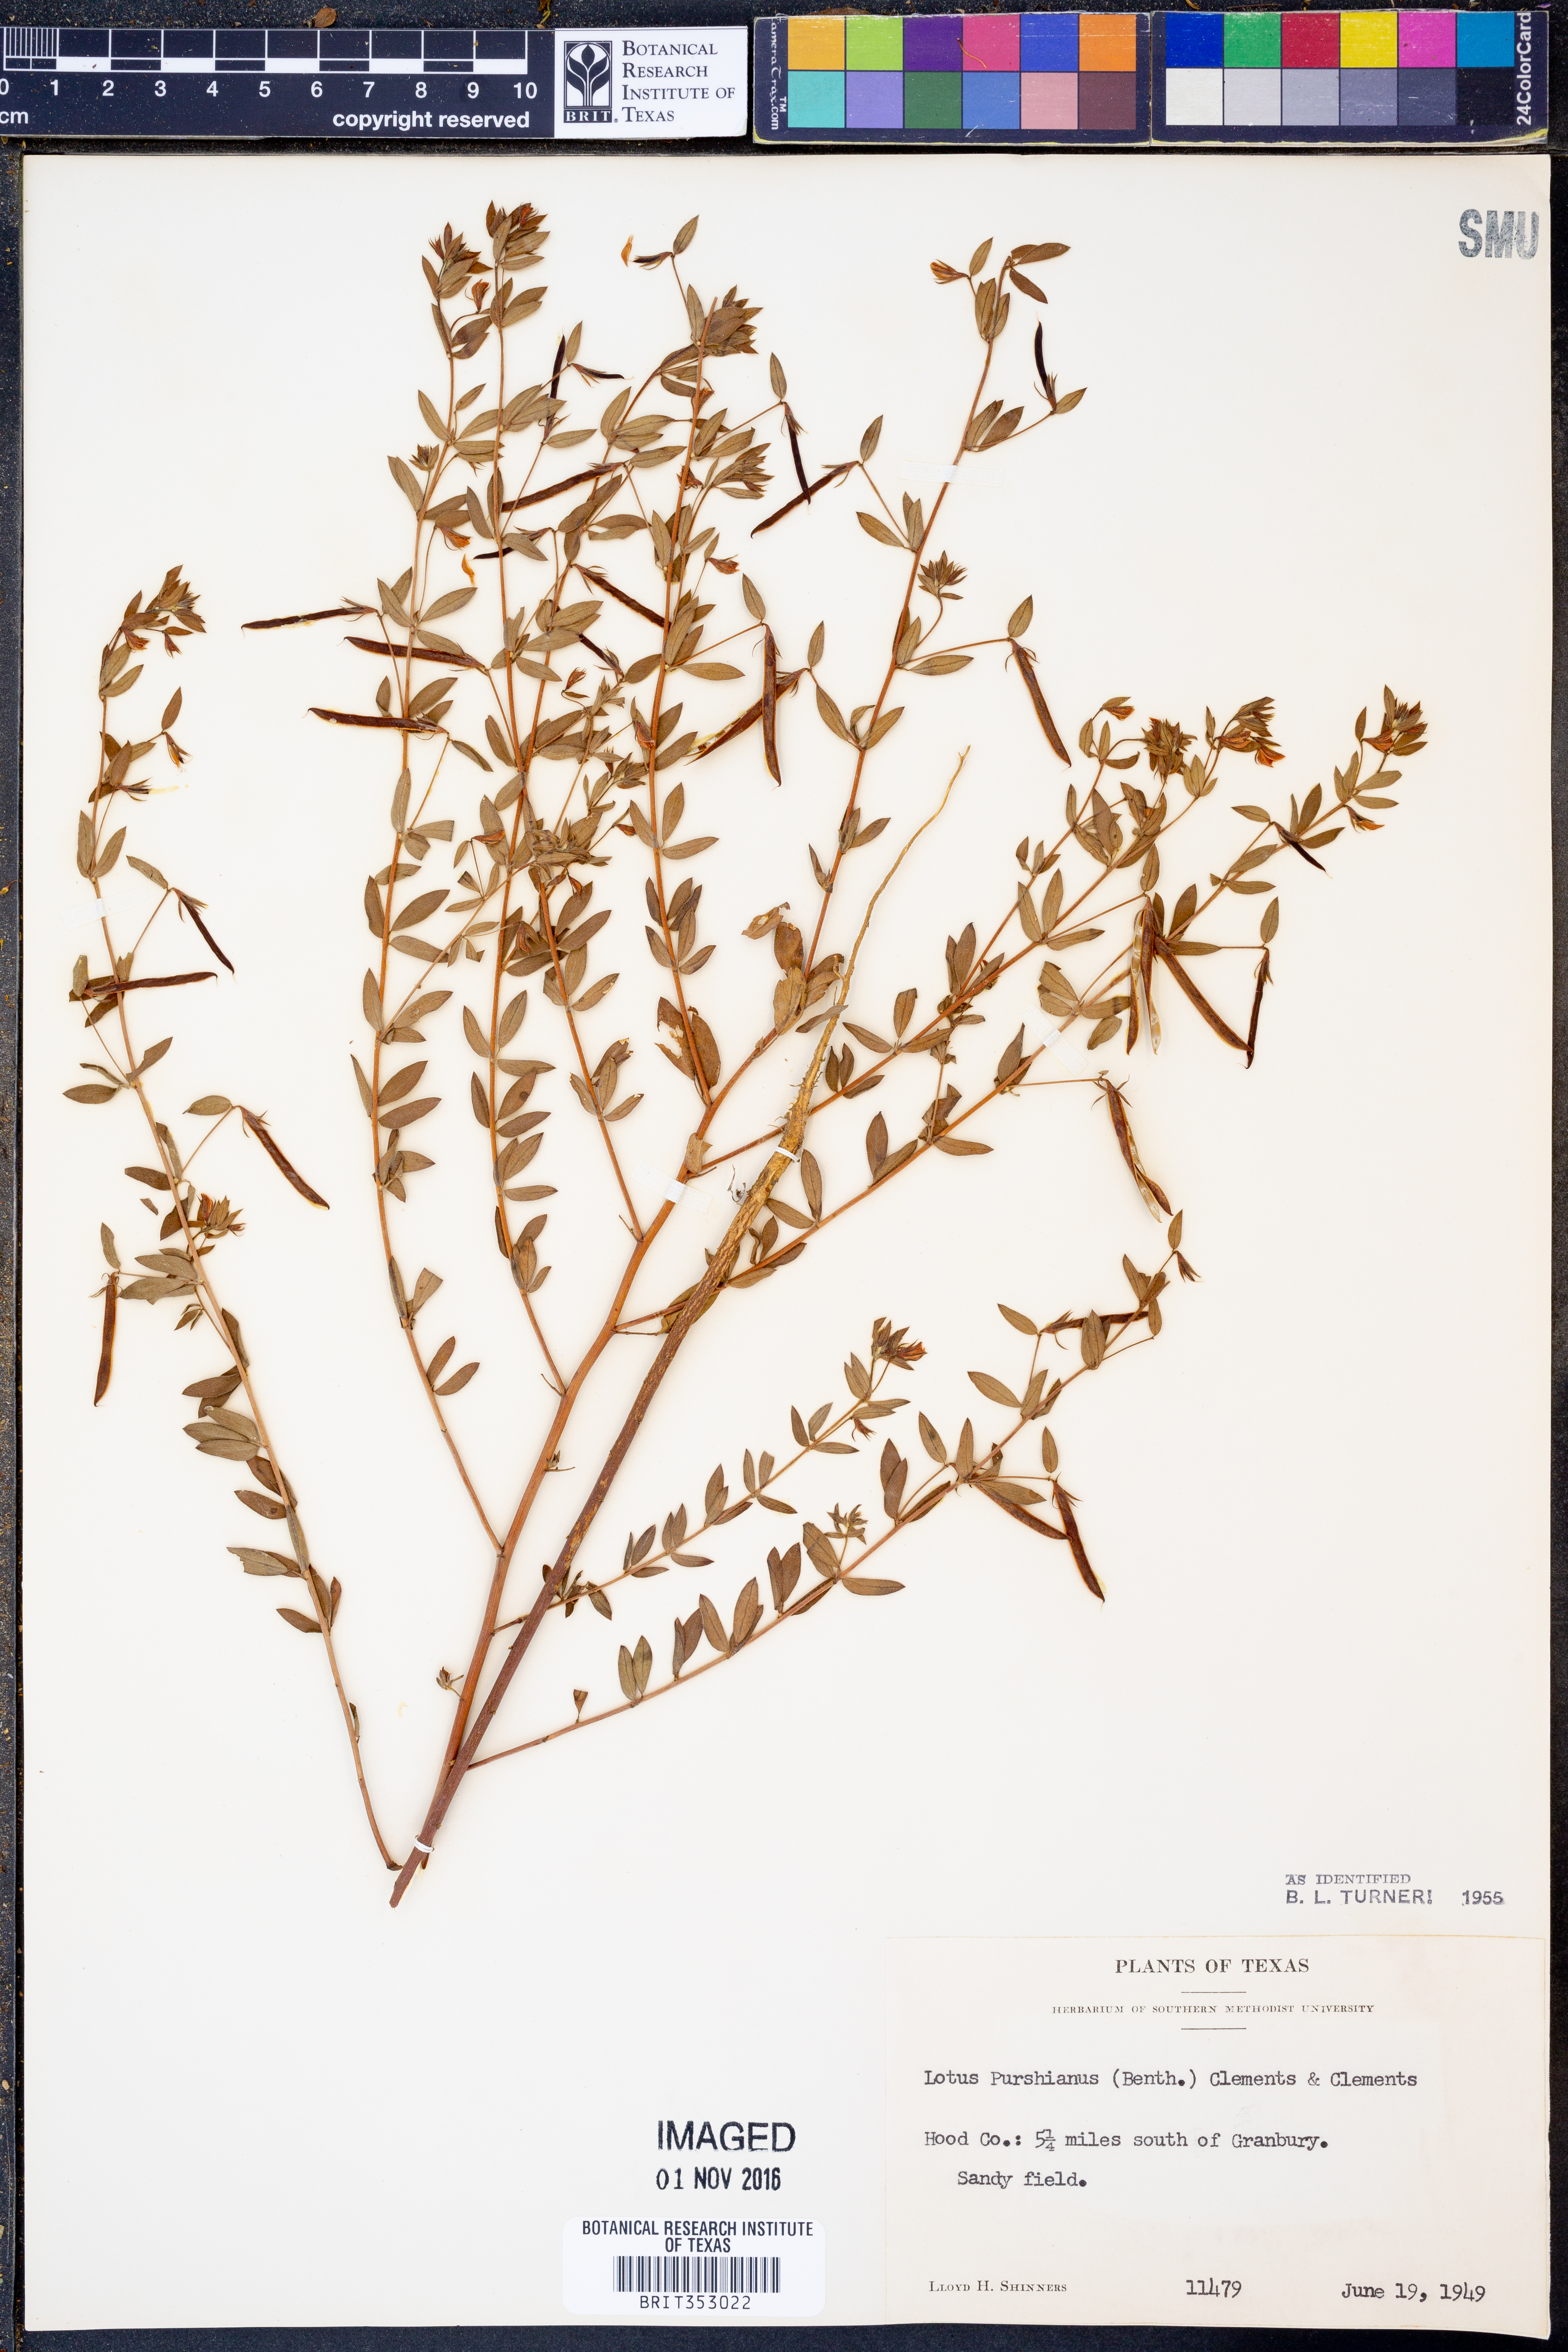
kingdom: Plantae
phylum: Tracheophyta
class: Magnoliopsida
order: Fabales
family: Fabaceae
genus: Acmispon
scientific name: Acmispon americanus
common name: American bird's-foot trefoil
